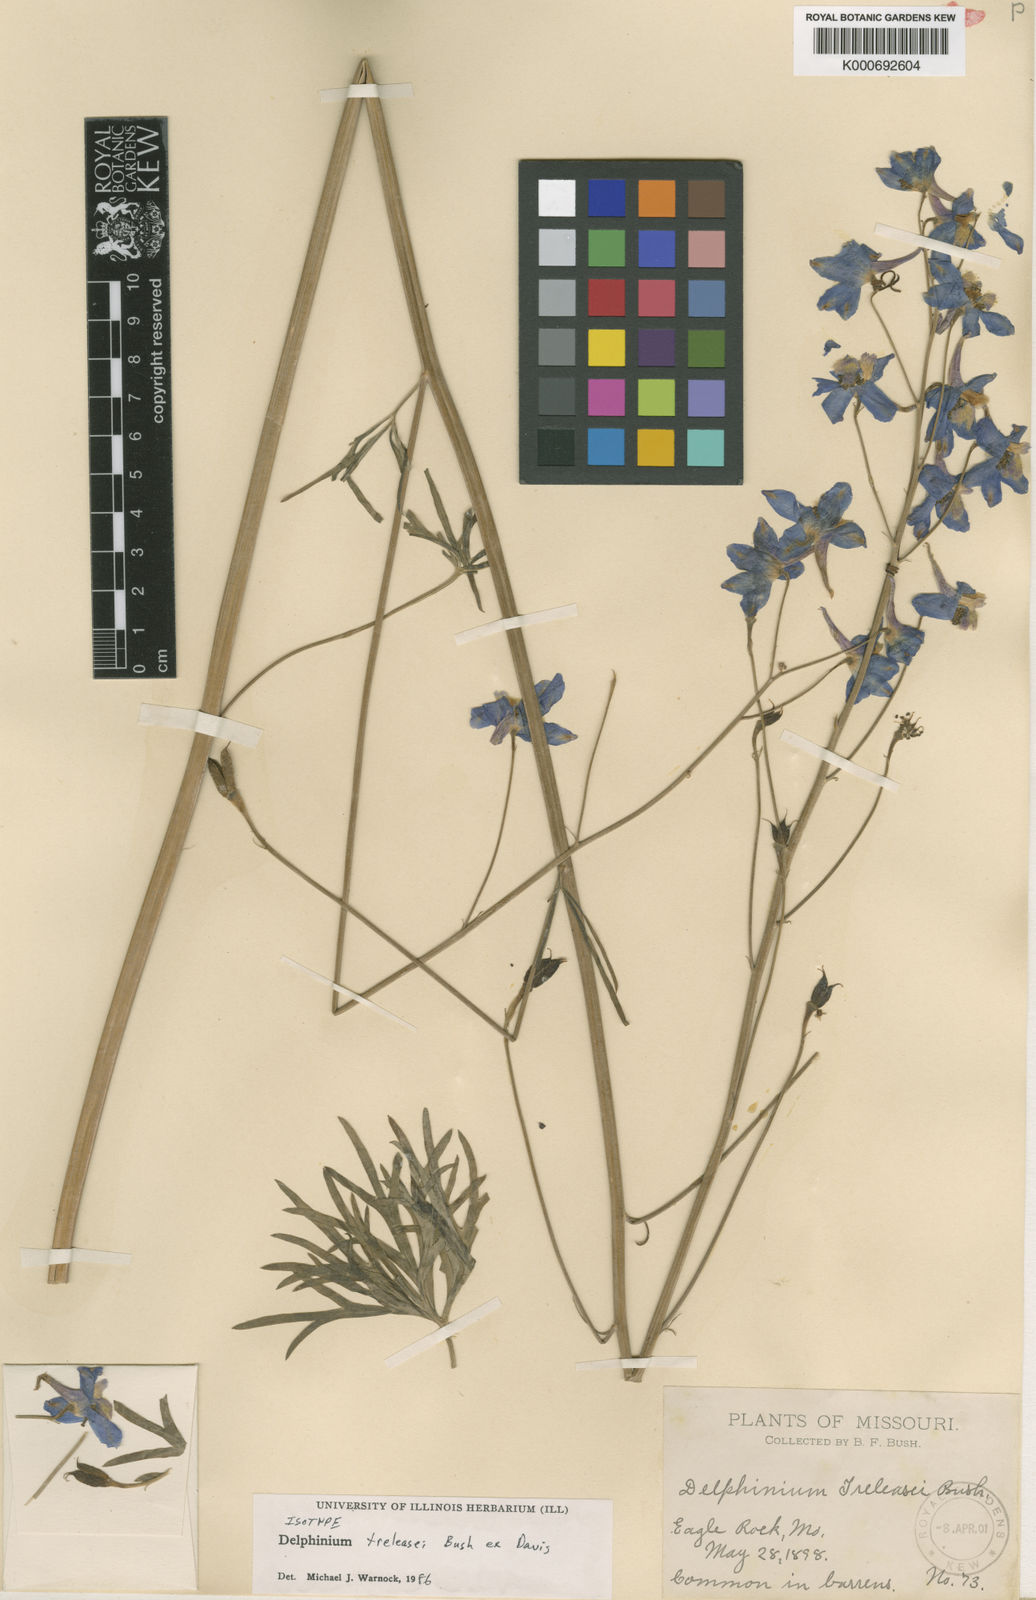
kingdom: Plantae
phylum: Tracheophyta
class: Magnoliopsida
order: Ranunculales
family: Ranunculaceae
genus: Delphinium
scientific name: Delphinium
